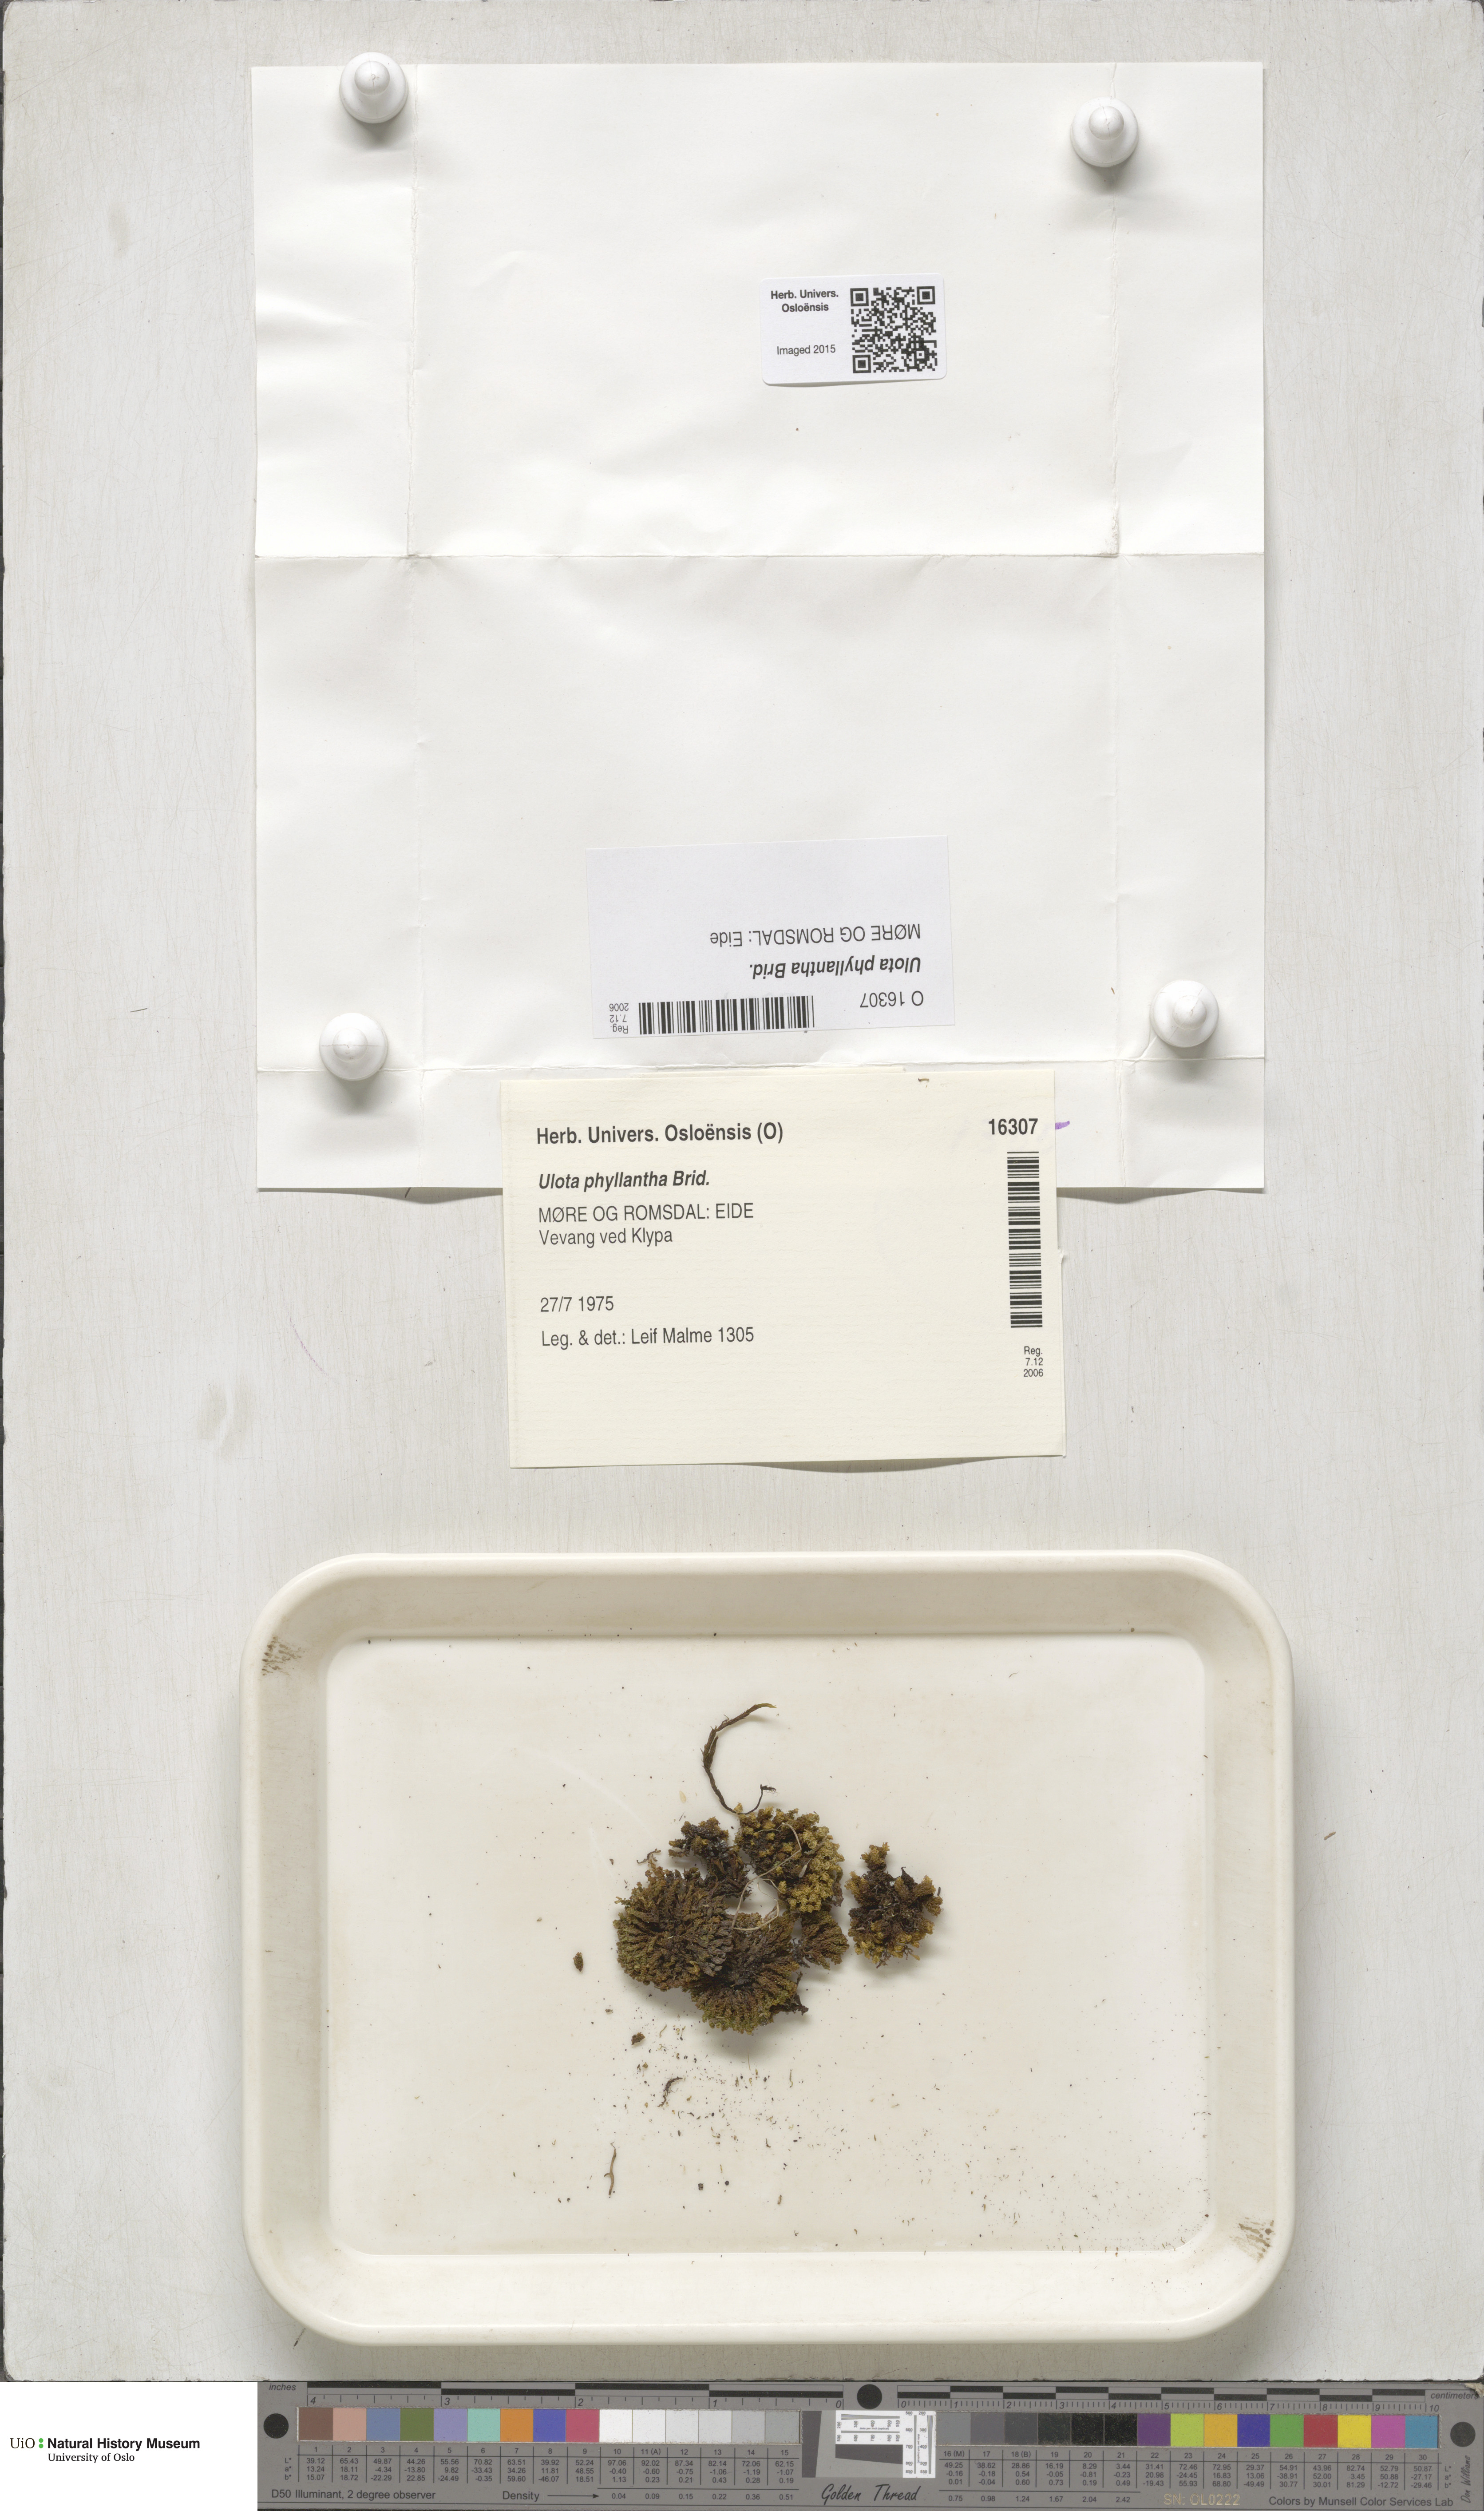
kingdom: Plantae
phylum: Bryophyta
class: Bryopsida
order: Orthotrichales
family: Orthotrichaceae
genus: Plenogemma
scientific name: Plenogemma phyllantha
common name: Frizzled pincushion
